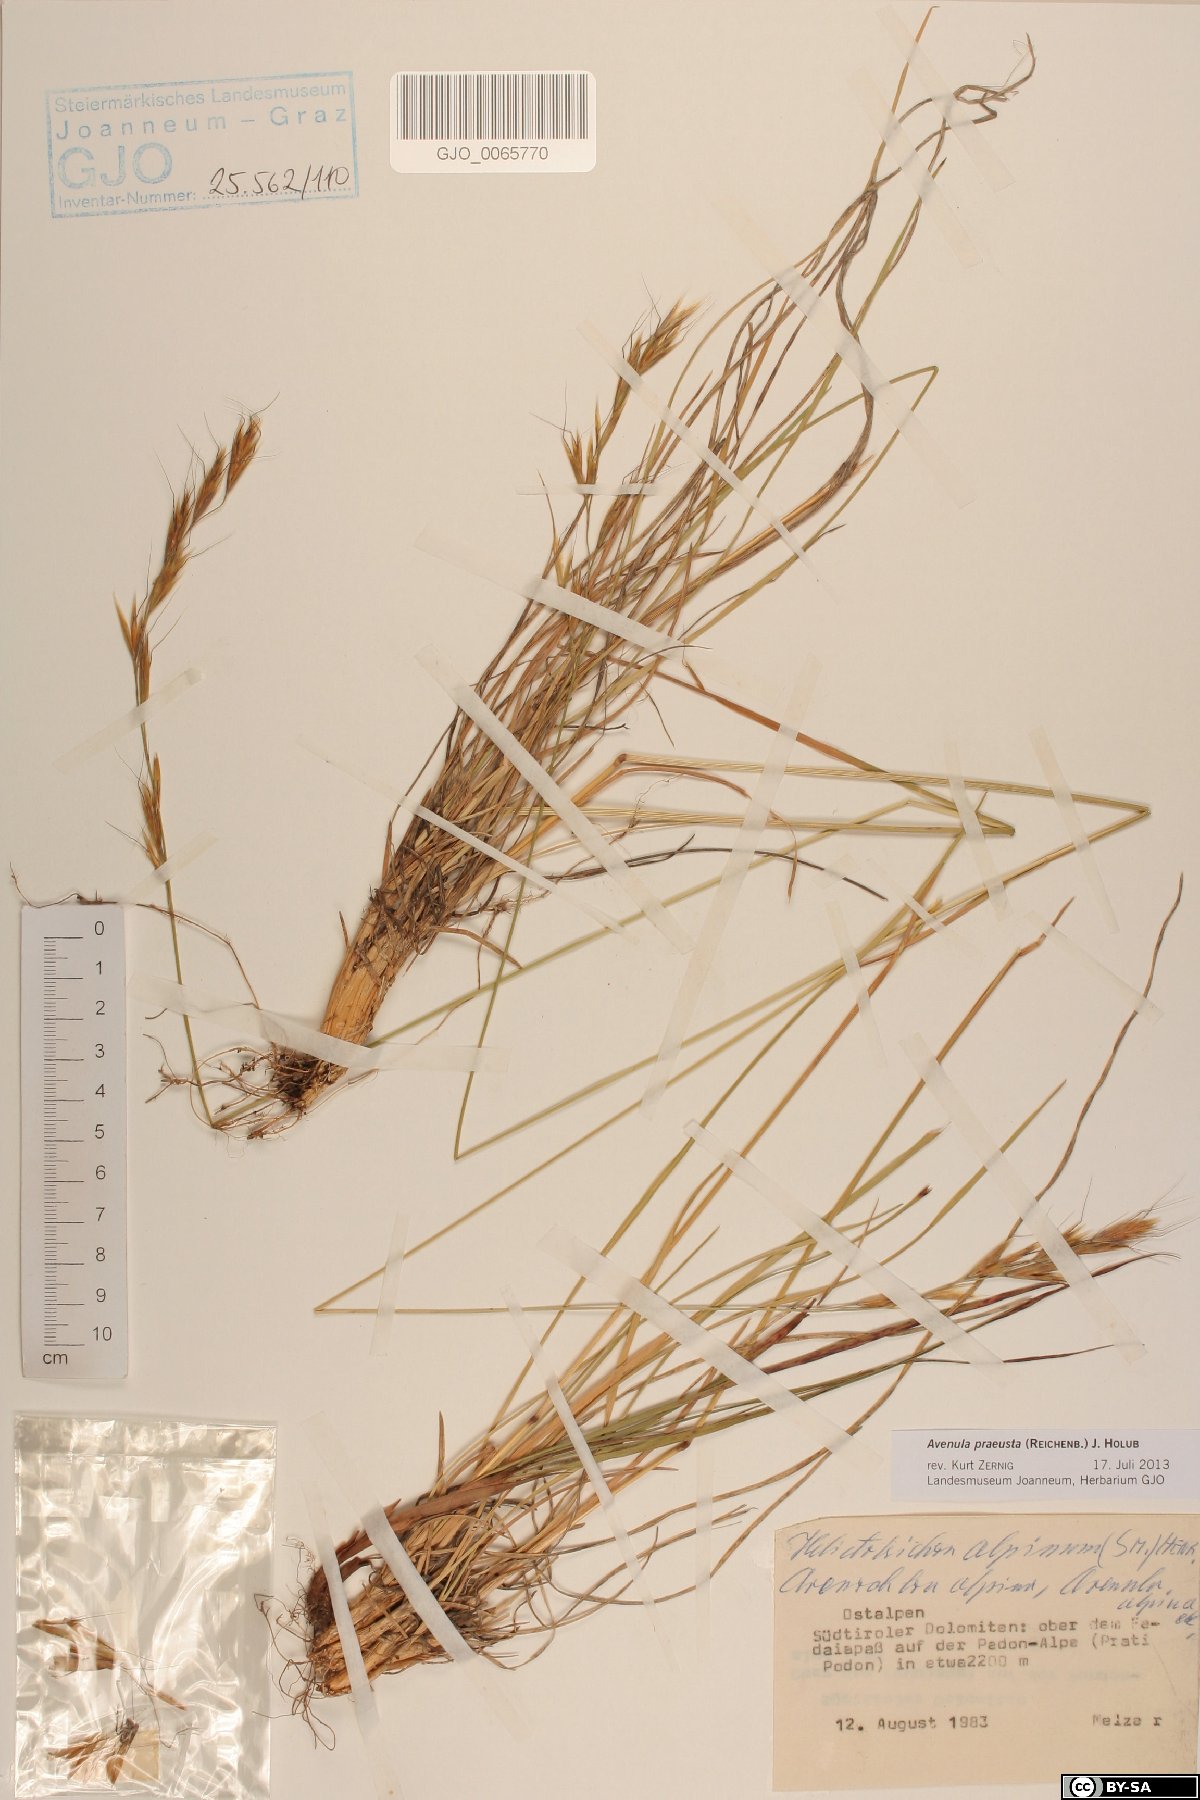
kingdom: Plantae
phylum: Tracheophyta
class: Liliopsida
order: Poales
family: Poaceae
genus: Helictochloa
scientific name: Helictochloa praeusta
